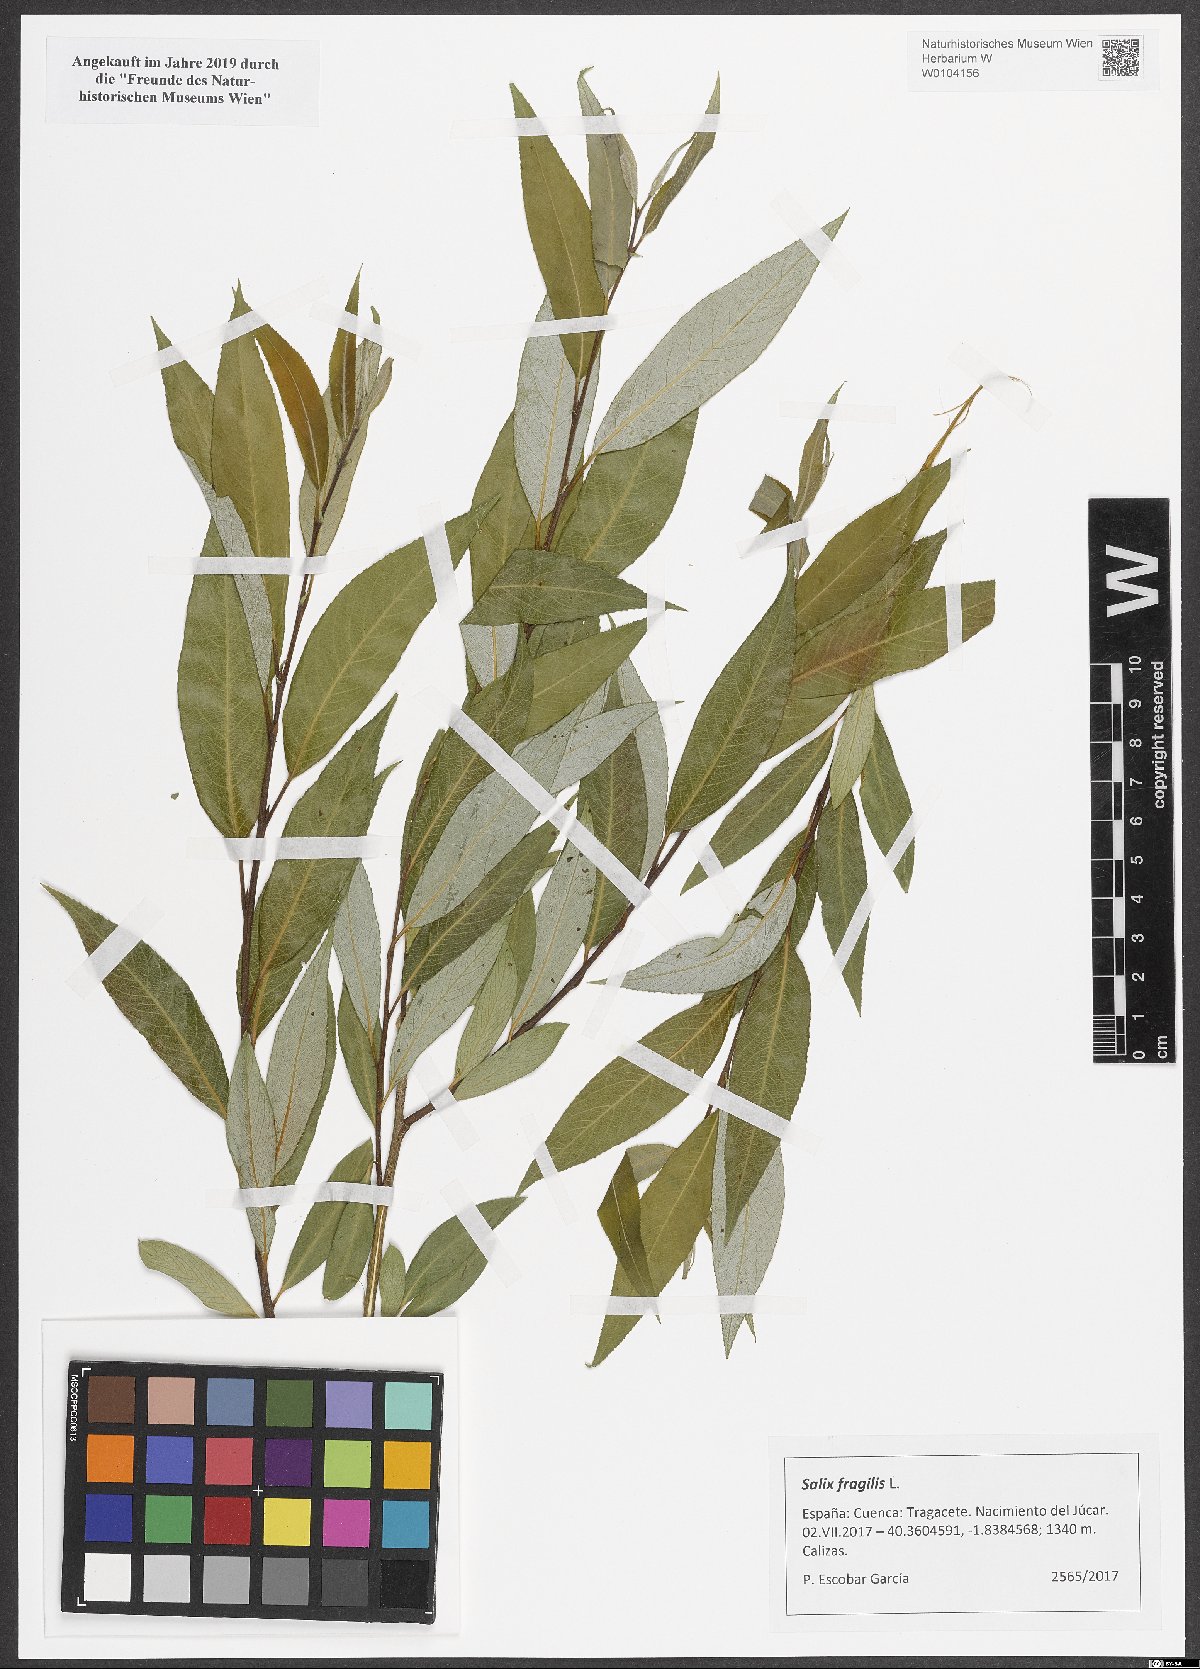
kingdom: Plantae
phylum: Tracheophyta
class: Magnoliopsida
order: Malpighiales
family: Salicaceae
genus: Salix
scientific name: Salix fragilis
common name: Crack willow
